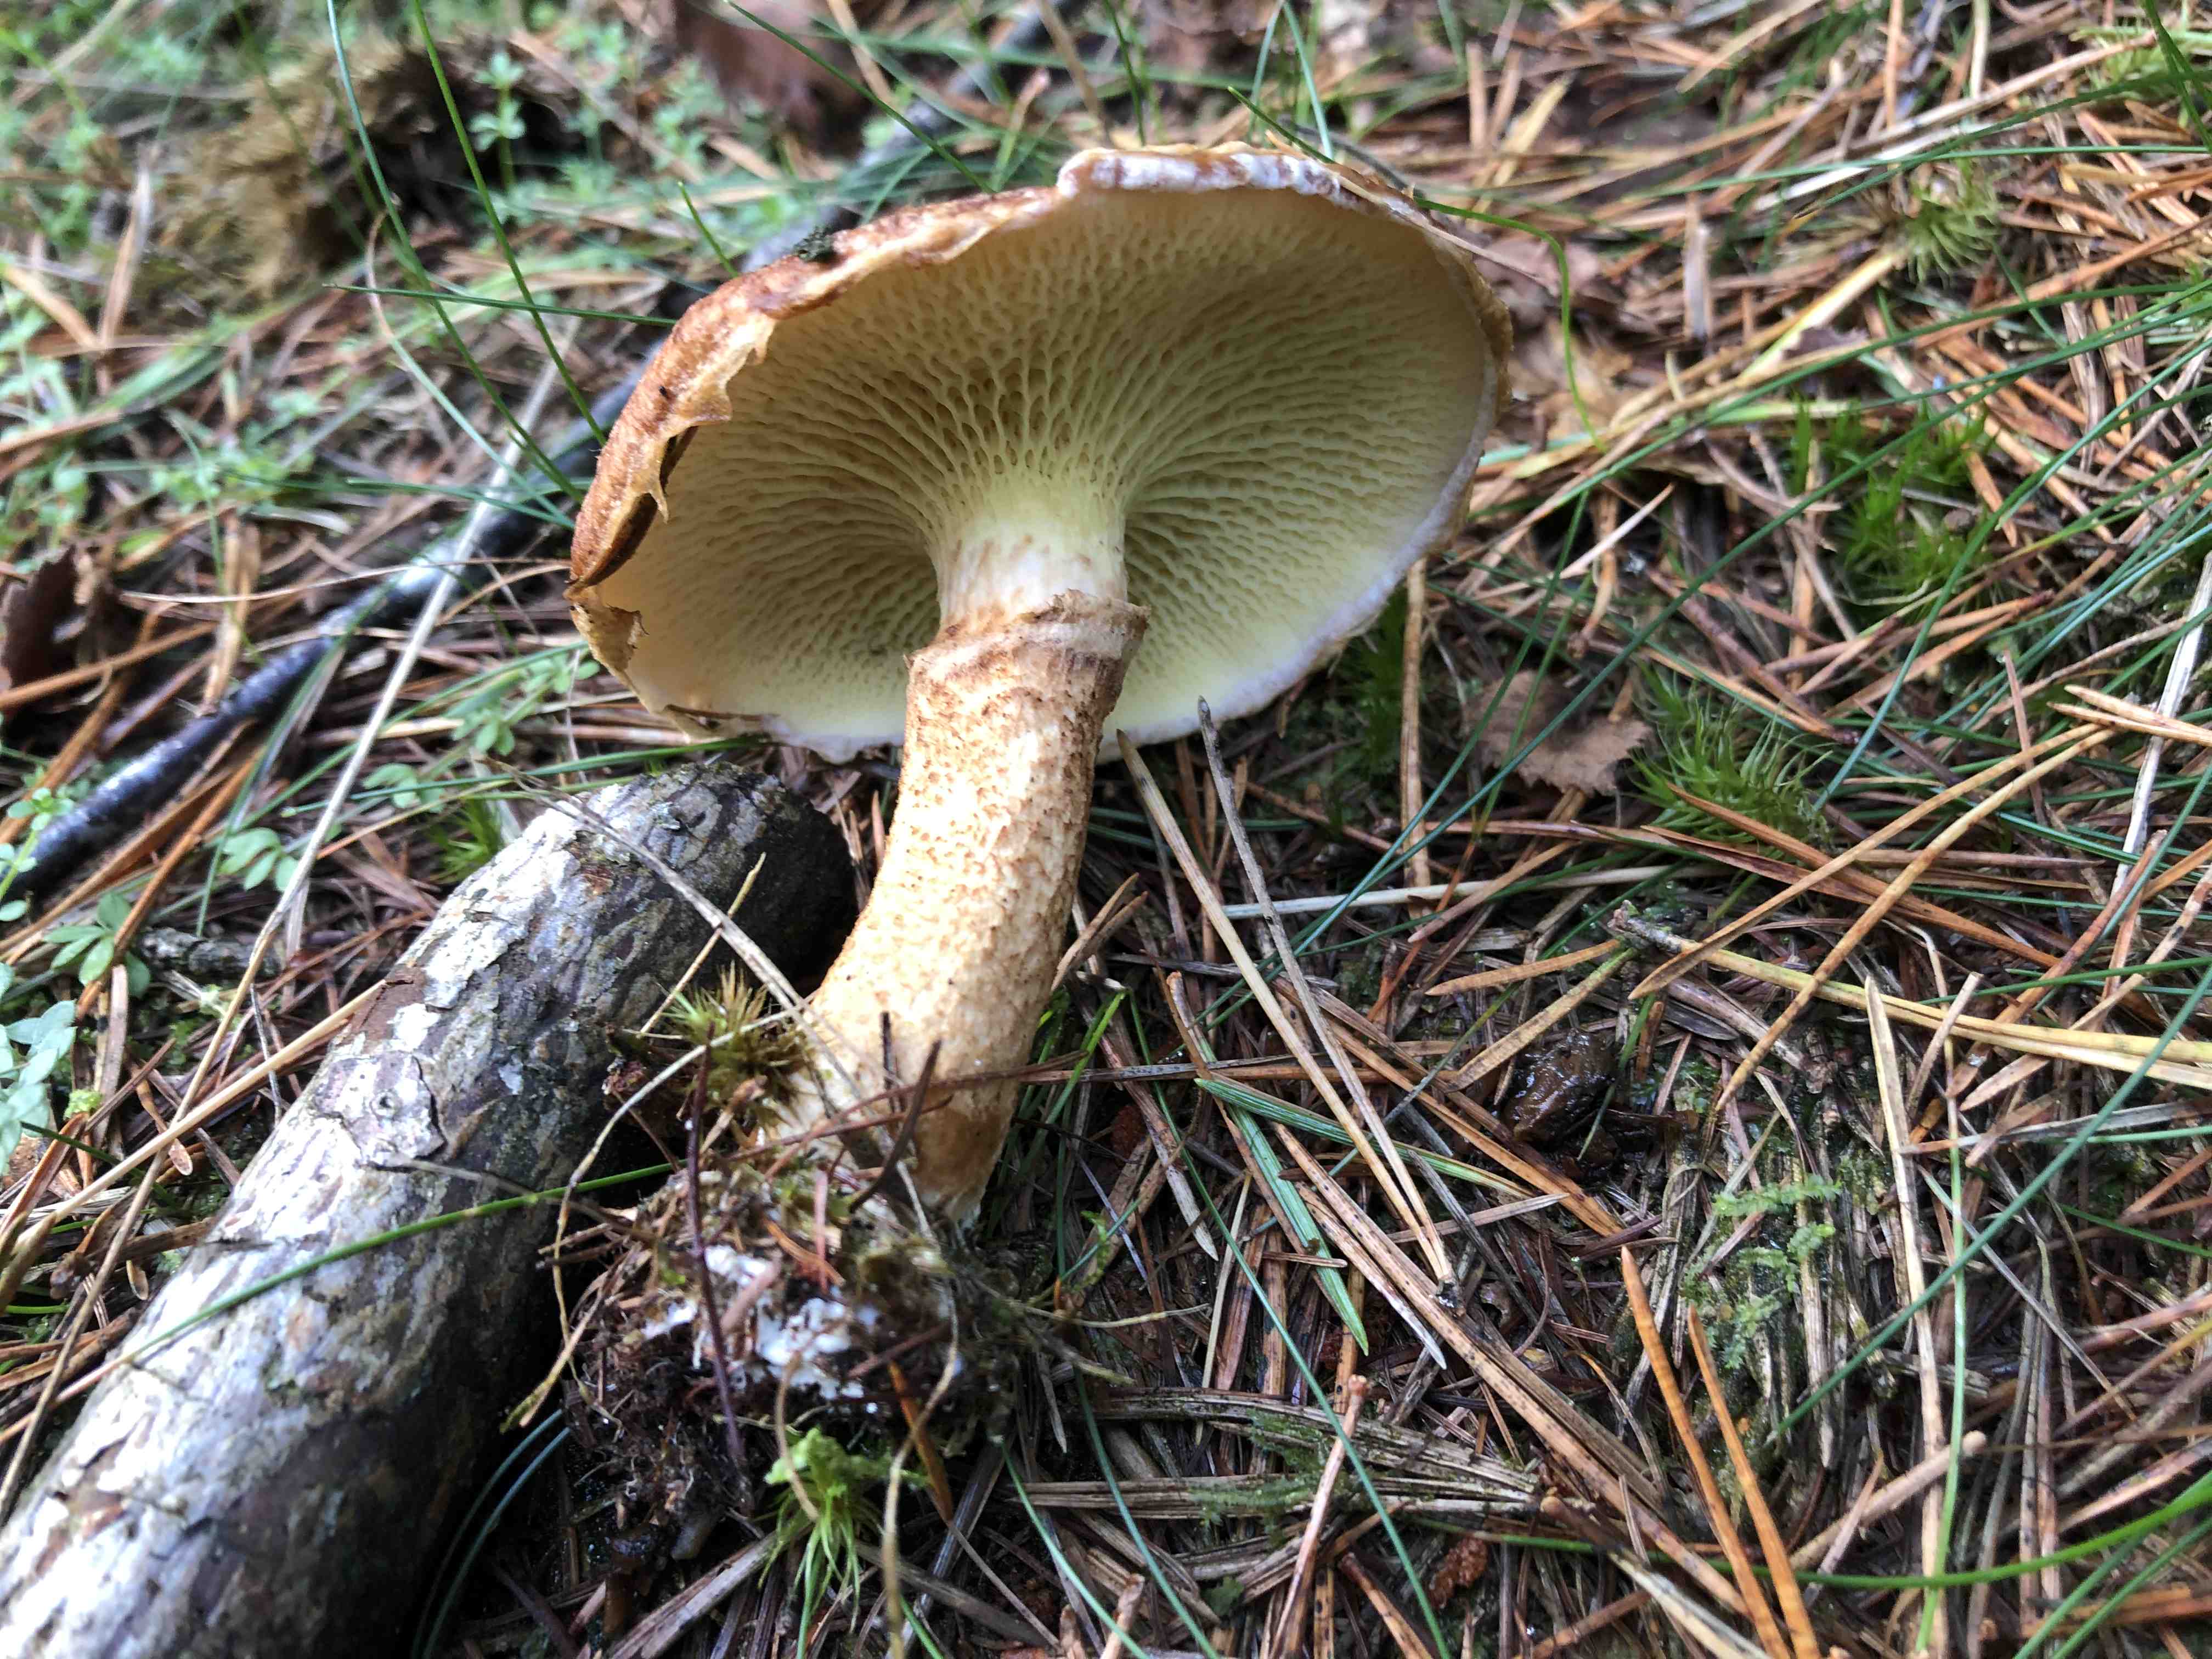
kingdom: Fungi
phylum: Basidiomycota
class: Agaricomycetes
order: Boletales
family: Suillaceae
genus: Suillus
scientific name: Suillus cavipes
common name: hulstokket slimrørhat
